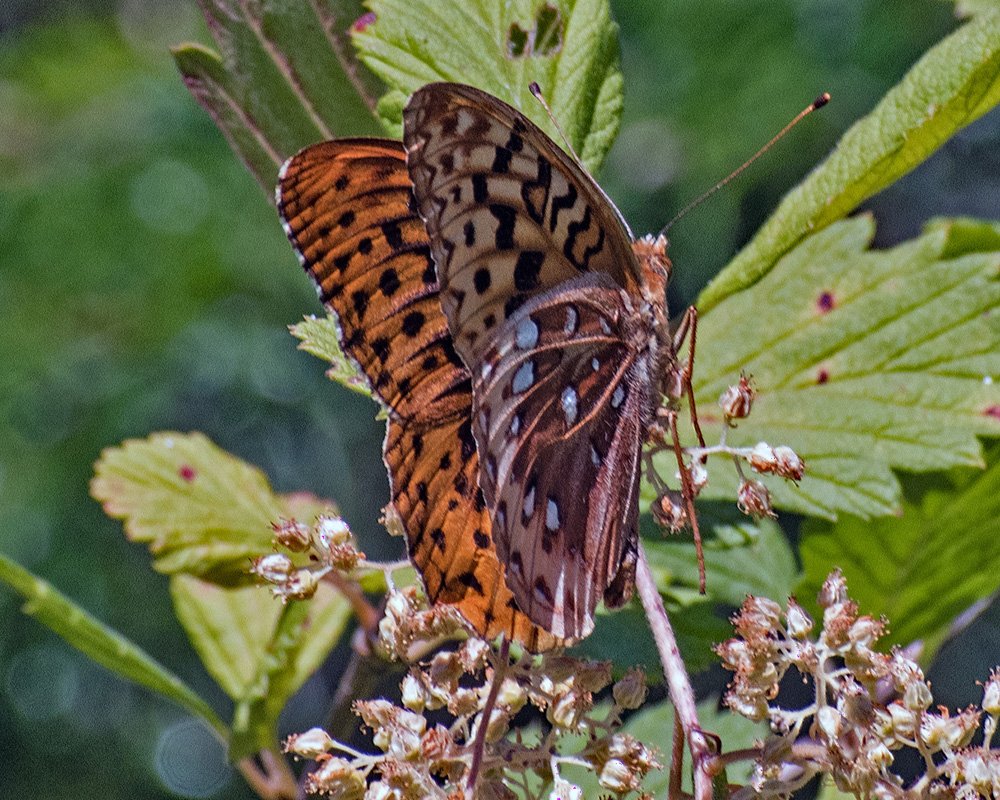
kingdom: Animalia
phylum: Arthropoda
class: Insecta
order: Lepidoptera
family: Nymphalidae
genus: Speyeria
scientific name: Speyeria cybele
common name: Great Spangled Fritillary
